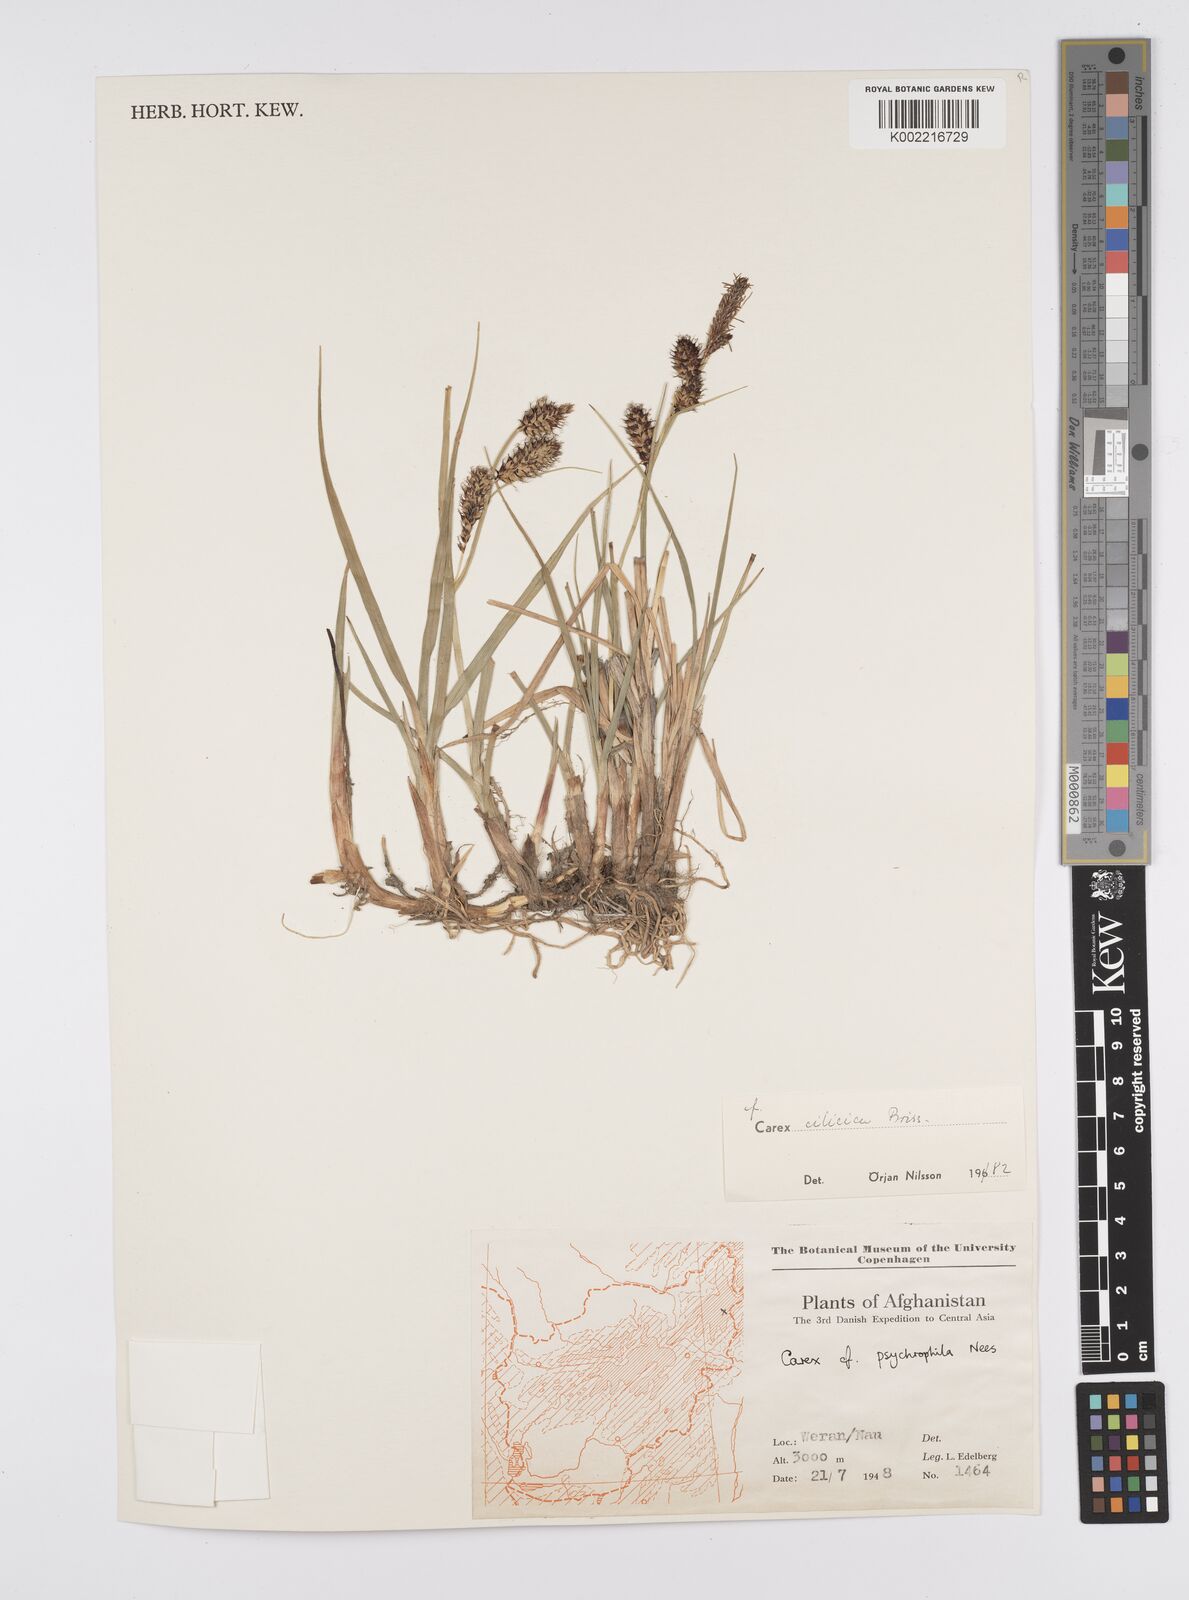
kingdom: Plantae
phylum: Tracheophyta
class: Liliopsida
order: Poales
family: Cyperaceae
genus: Carex
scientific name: Carex psychrophila
